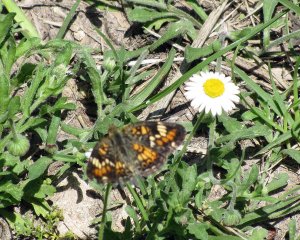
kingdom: Animalia
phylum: Arthropoda
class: Insecta
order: Lepidoptera
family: Nymphalidae
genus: Phyciodes
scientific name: Phyciodes phaon
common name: Phaon Crescent
